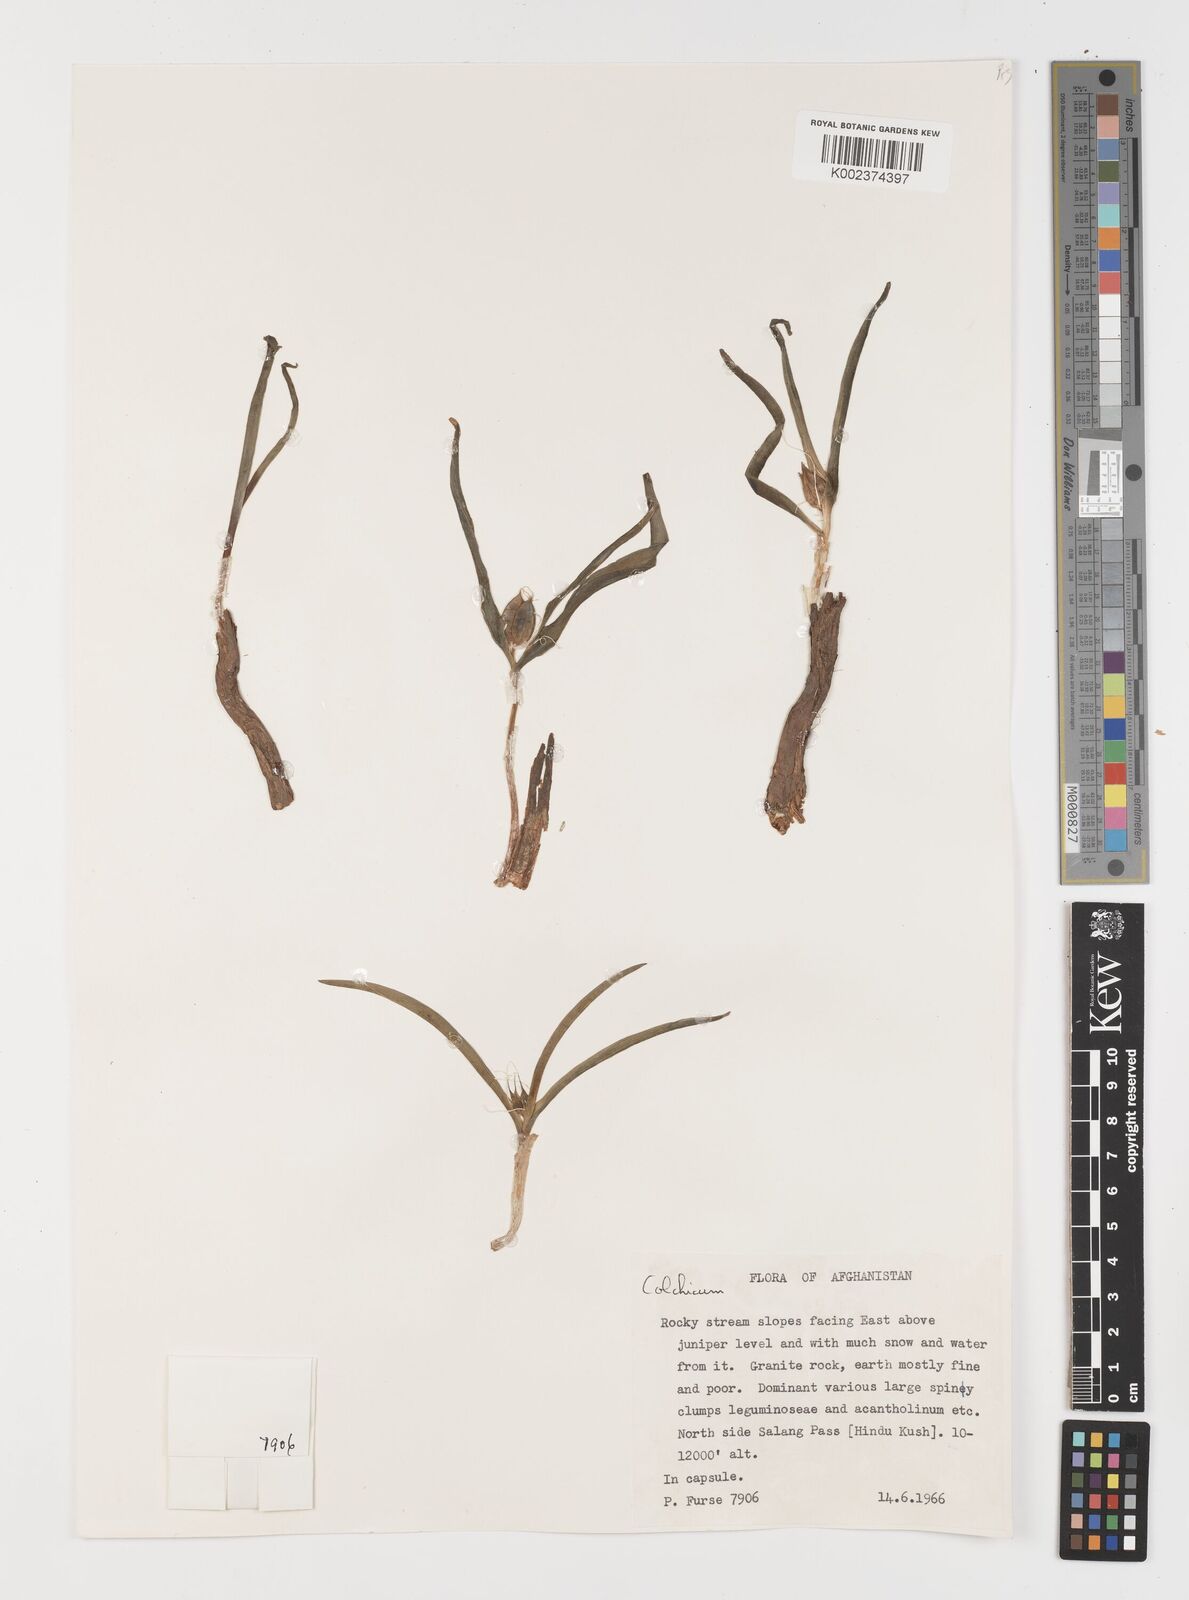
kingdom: Plantae
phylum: Tracheophyta
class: Liliopsida
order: Liliales
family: Colchicaceae
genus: Colchicum
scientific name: Colchicum
